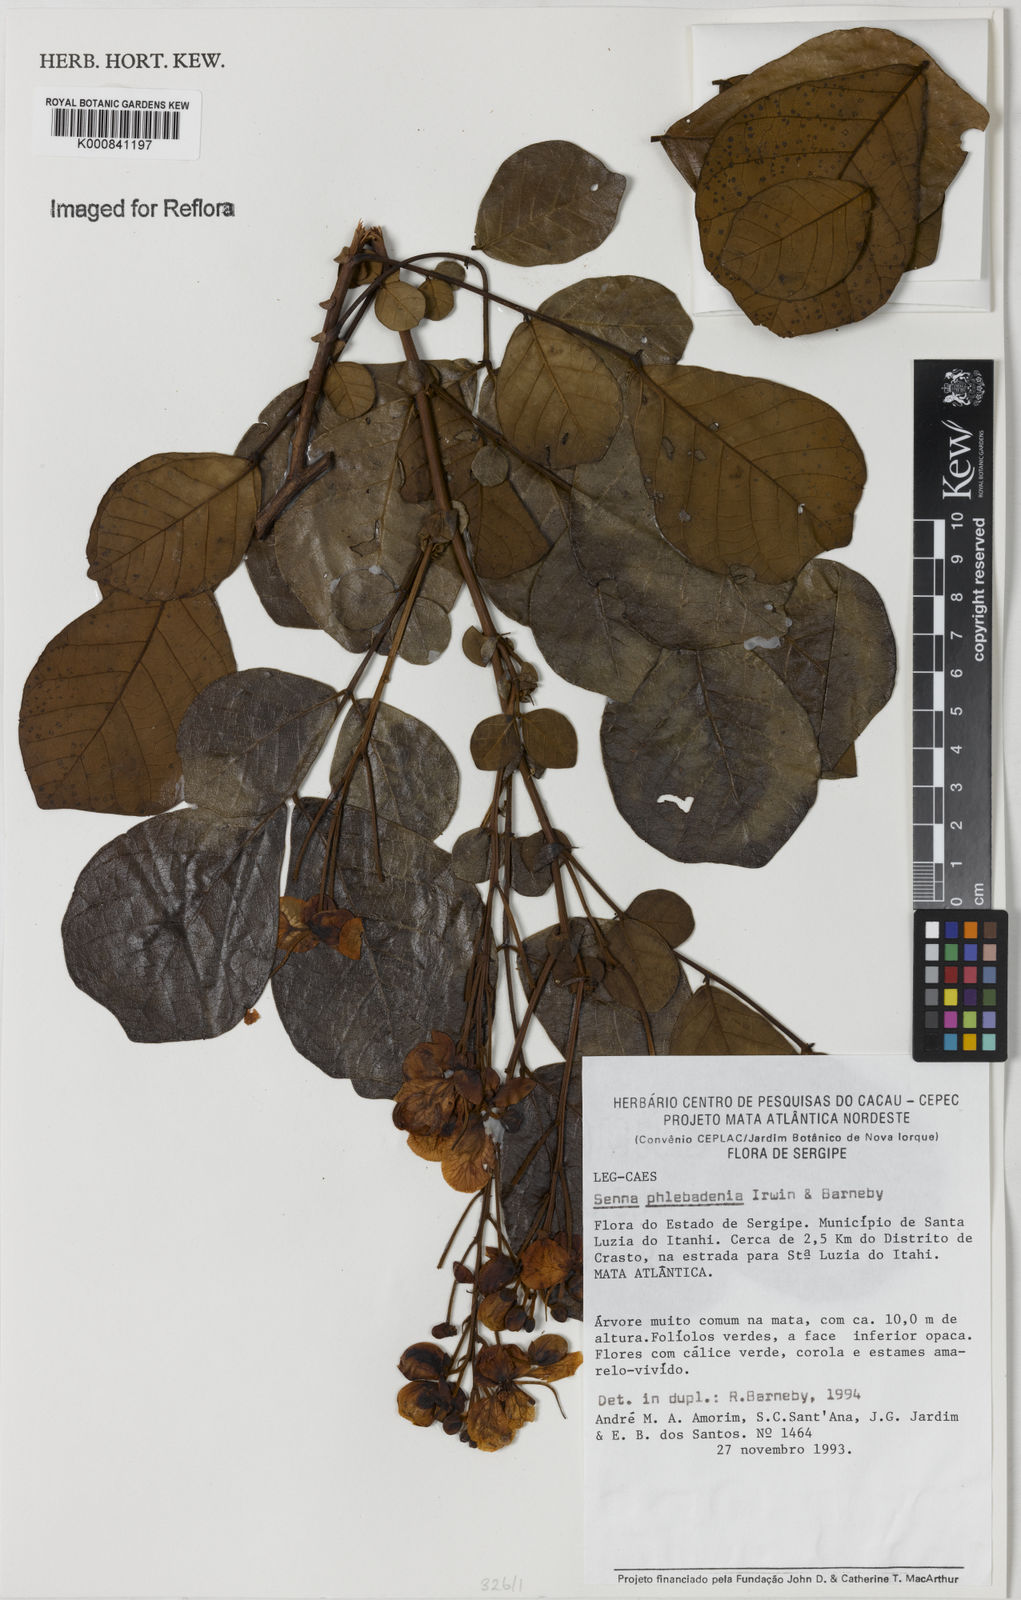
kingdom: Plantae
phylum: Tracheophyta
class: Magnoliopsida
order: Fabales
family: Fabaceae
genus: Senna
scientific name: Senna phlebadenia
